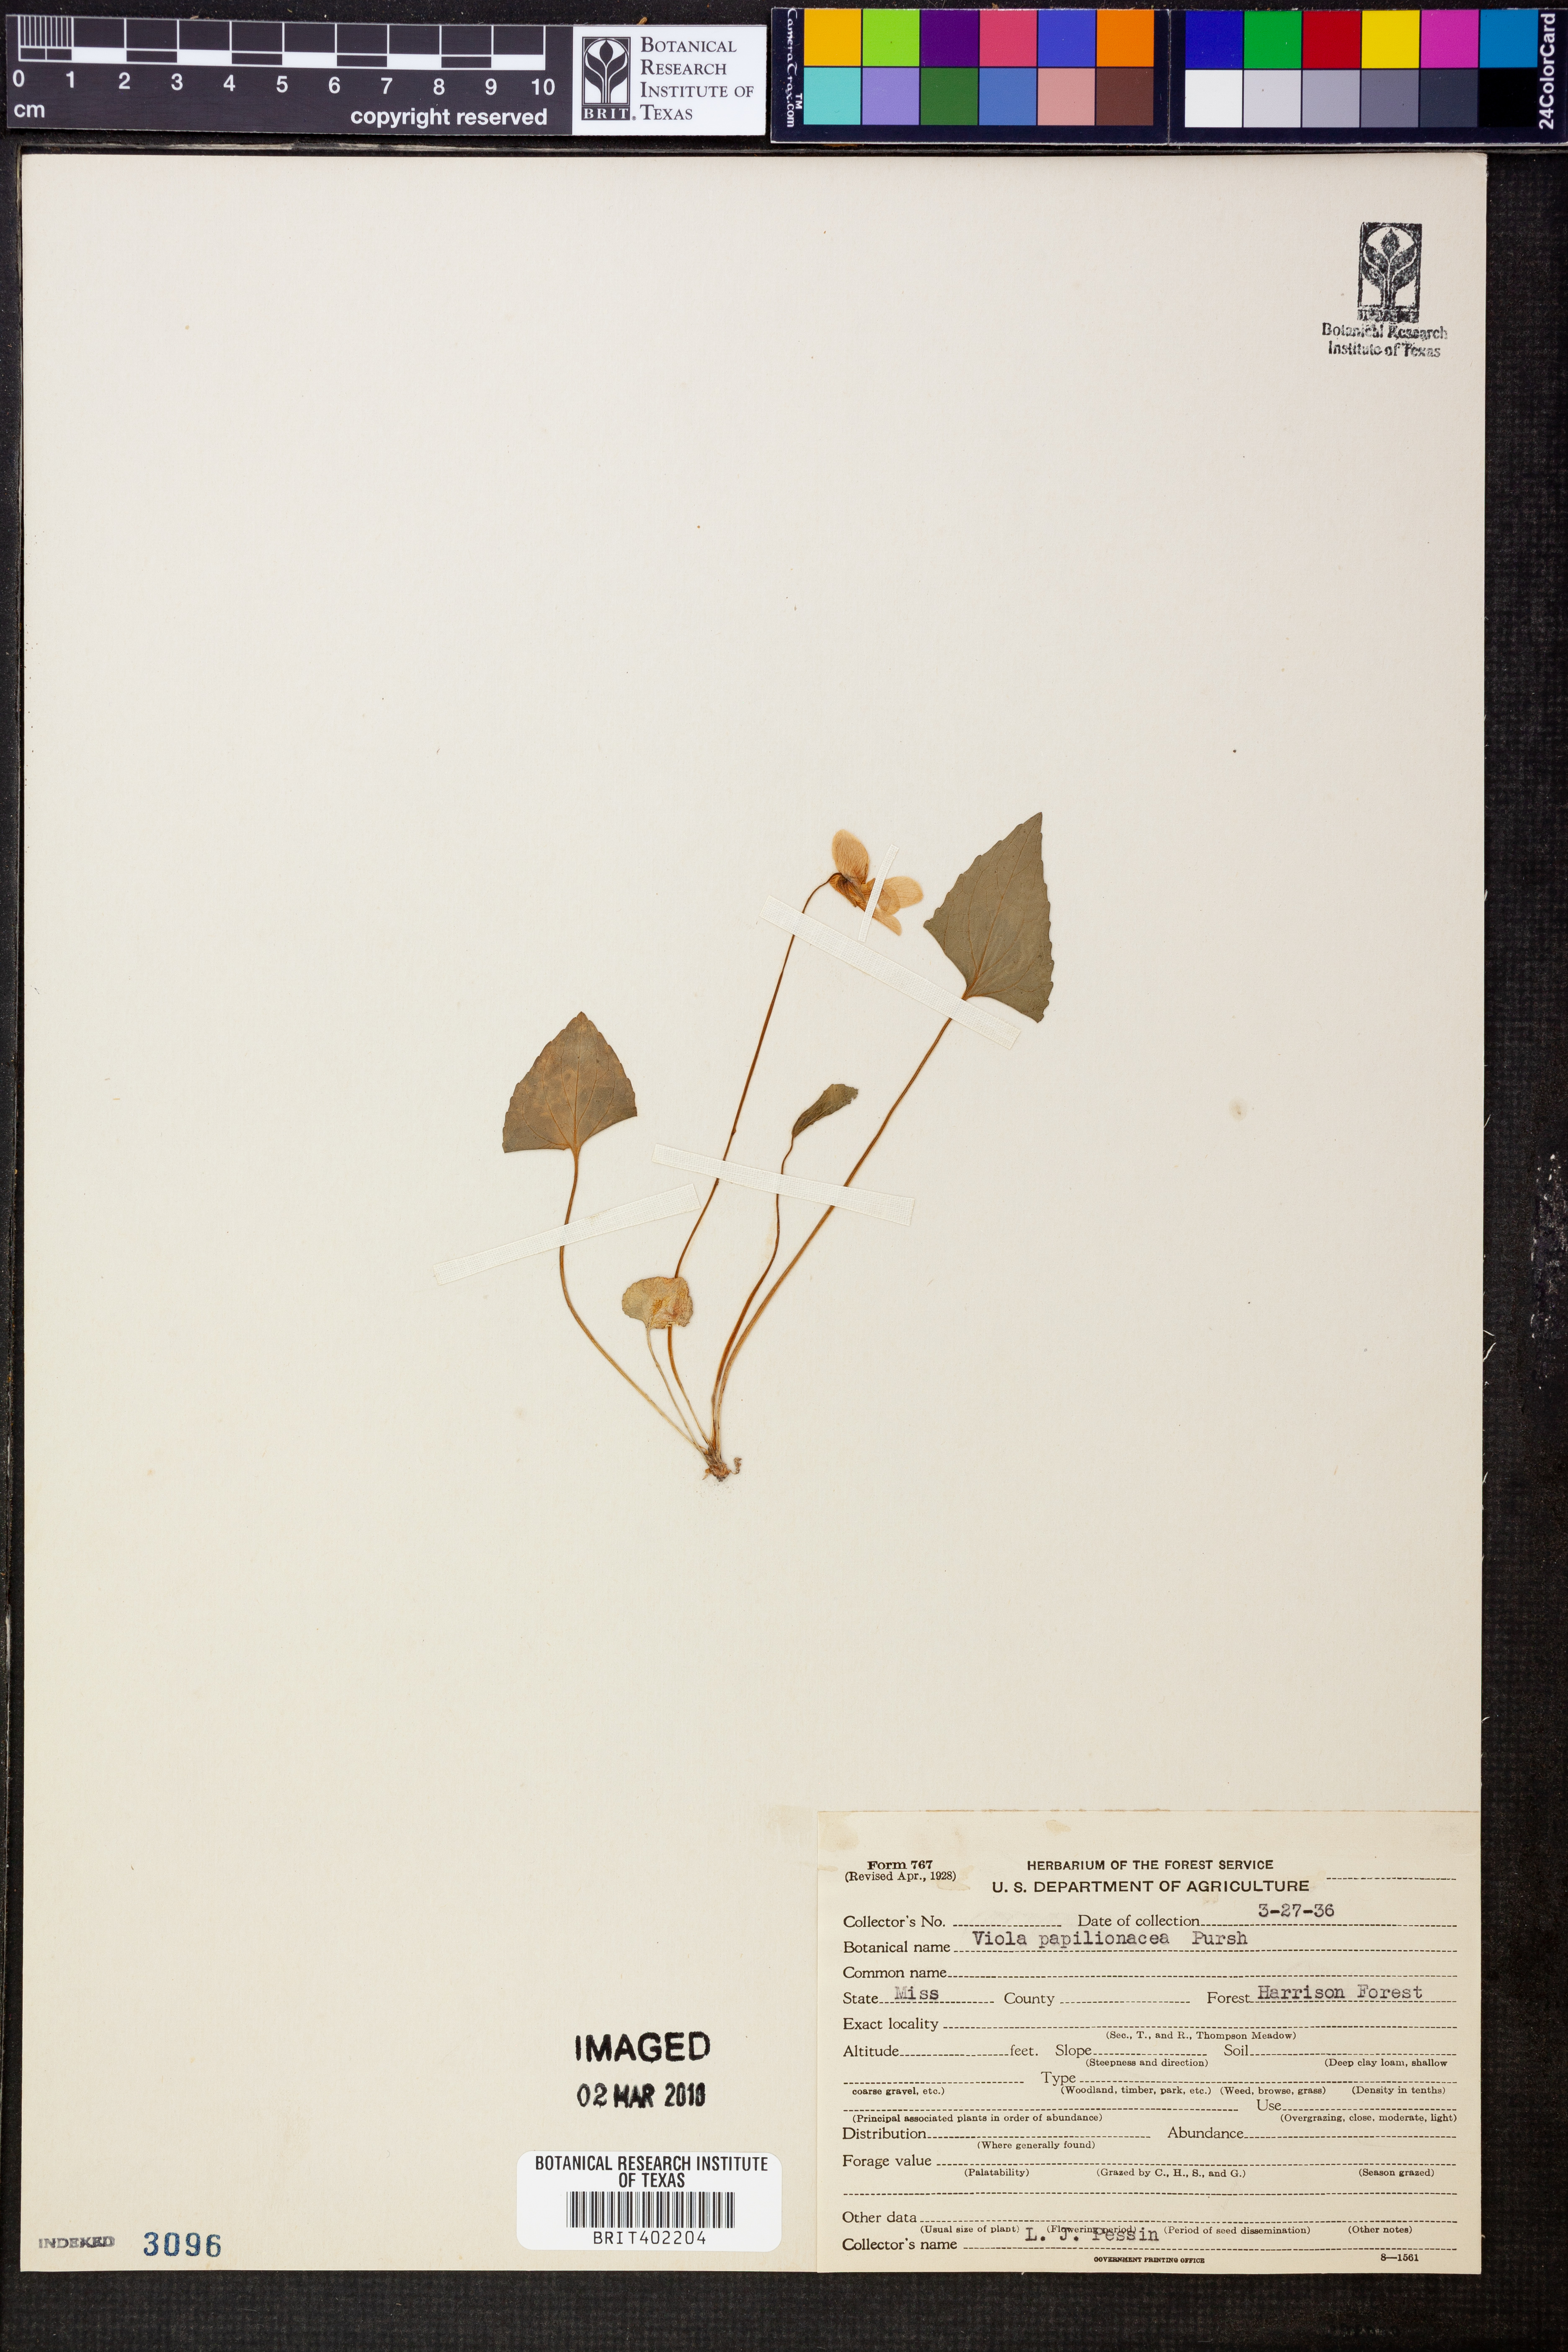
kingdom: Plantae
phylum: Tracheophyta
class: Magnoliopsida
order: Malpighiales
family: Violaceae
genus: Viola
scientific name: Viola sororia
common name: Dooryard violet
